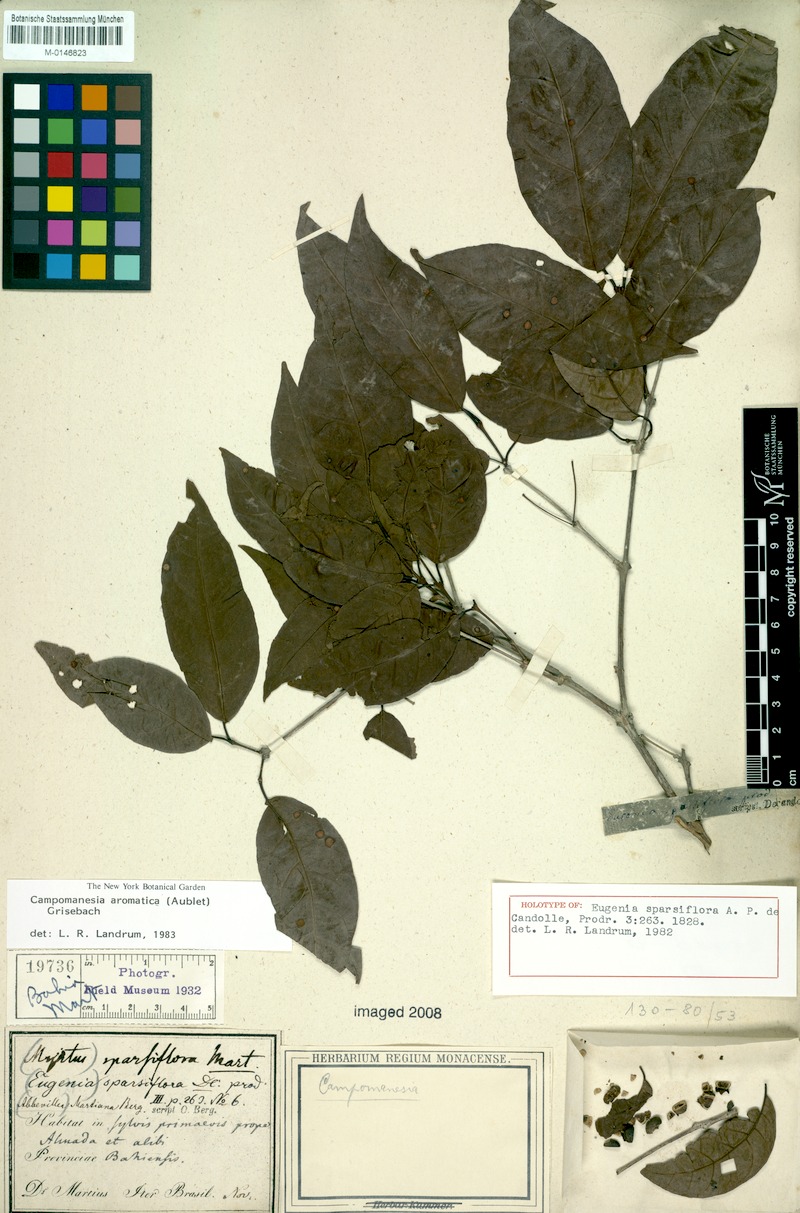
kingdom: Plantae
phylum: Tracheophyta
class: Magnoliopsida
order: Myrtales
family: Myrtaceae
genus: Campomanesia
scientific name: Campomanesia aromatica
